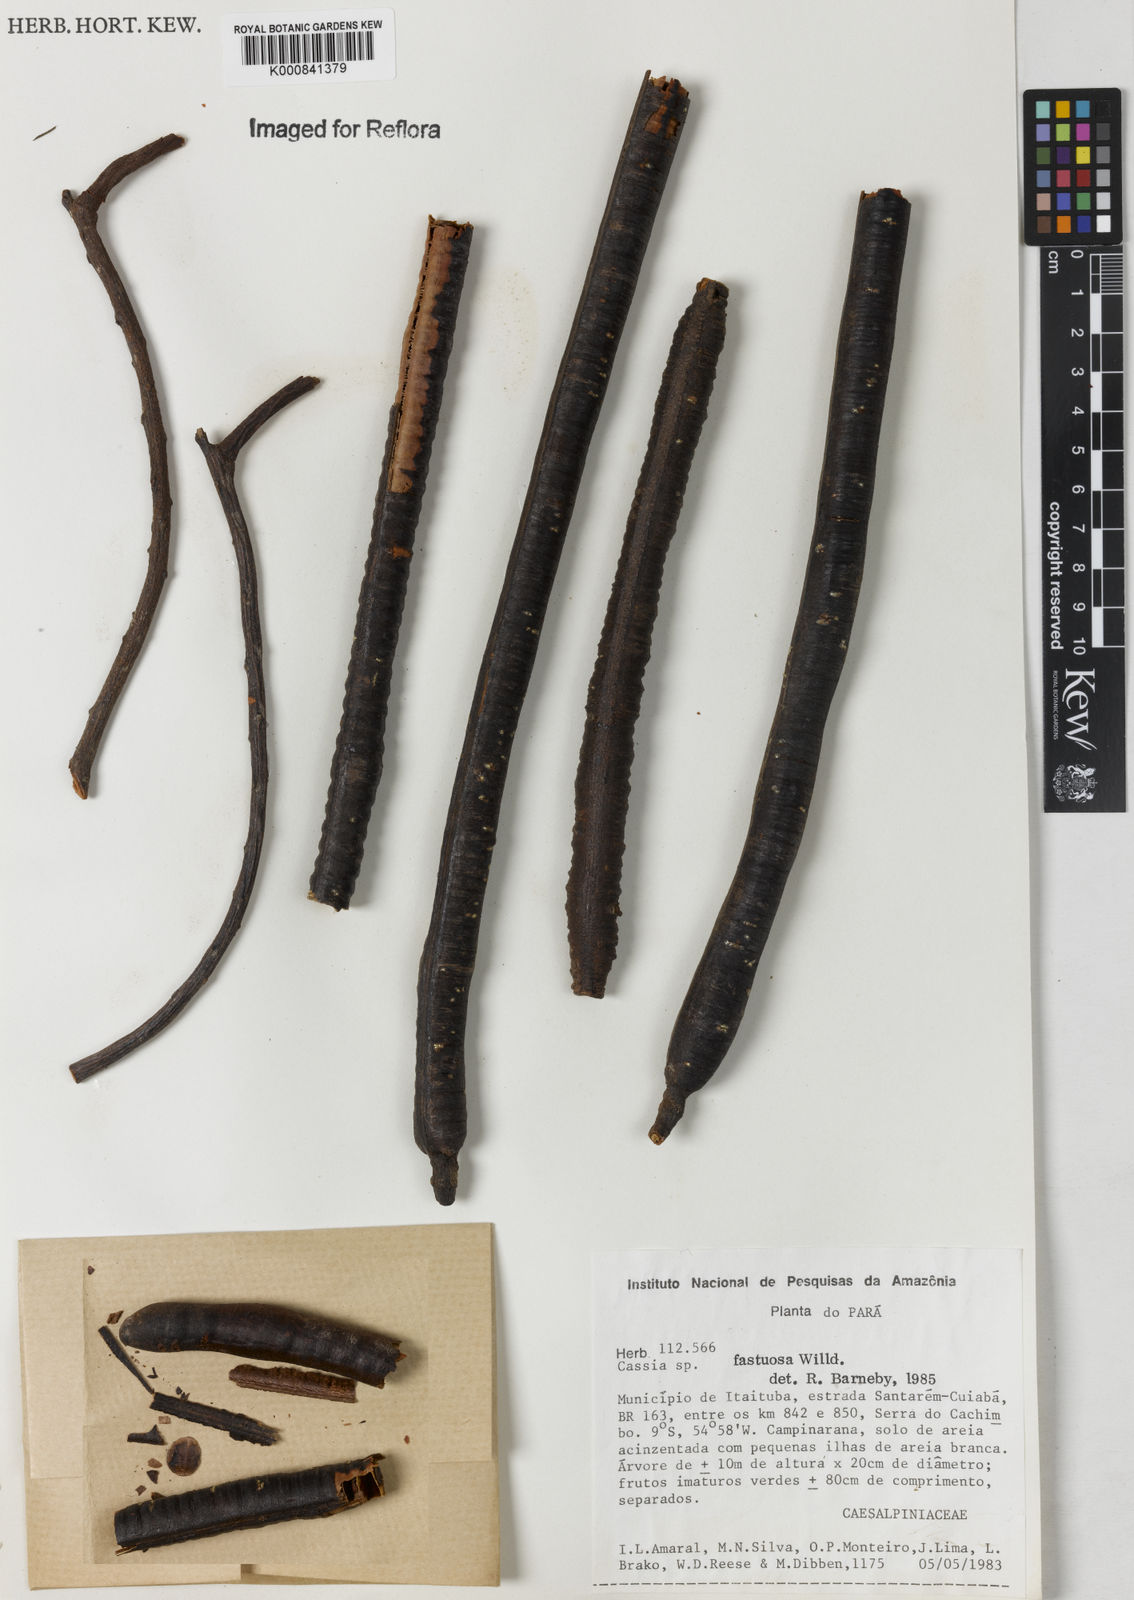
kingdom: Plantae
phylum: Tracheophyta
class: Magnoliopsida
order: Fabales
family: Fabaceae
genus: Cassia
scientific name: Cassia
